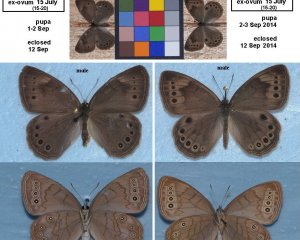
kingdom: Animalia
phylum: Arthropoda
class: Insecta
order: Lepidoptera
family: Nymphalidae
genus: Lethe
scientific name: Lethe eurydice
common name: Eyed Brown
